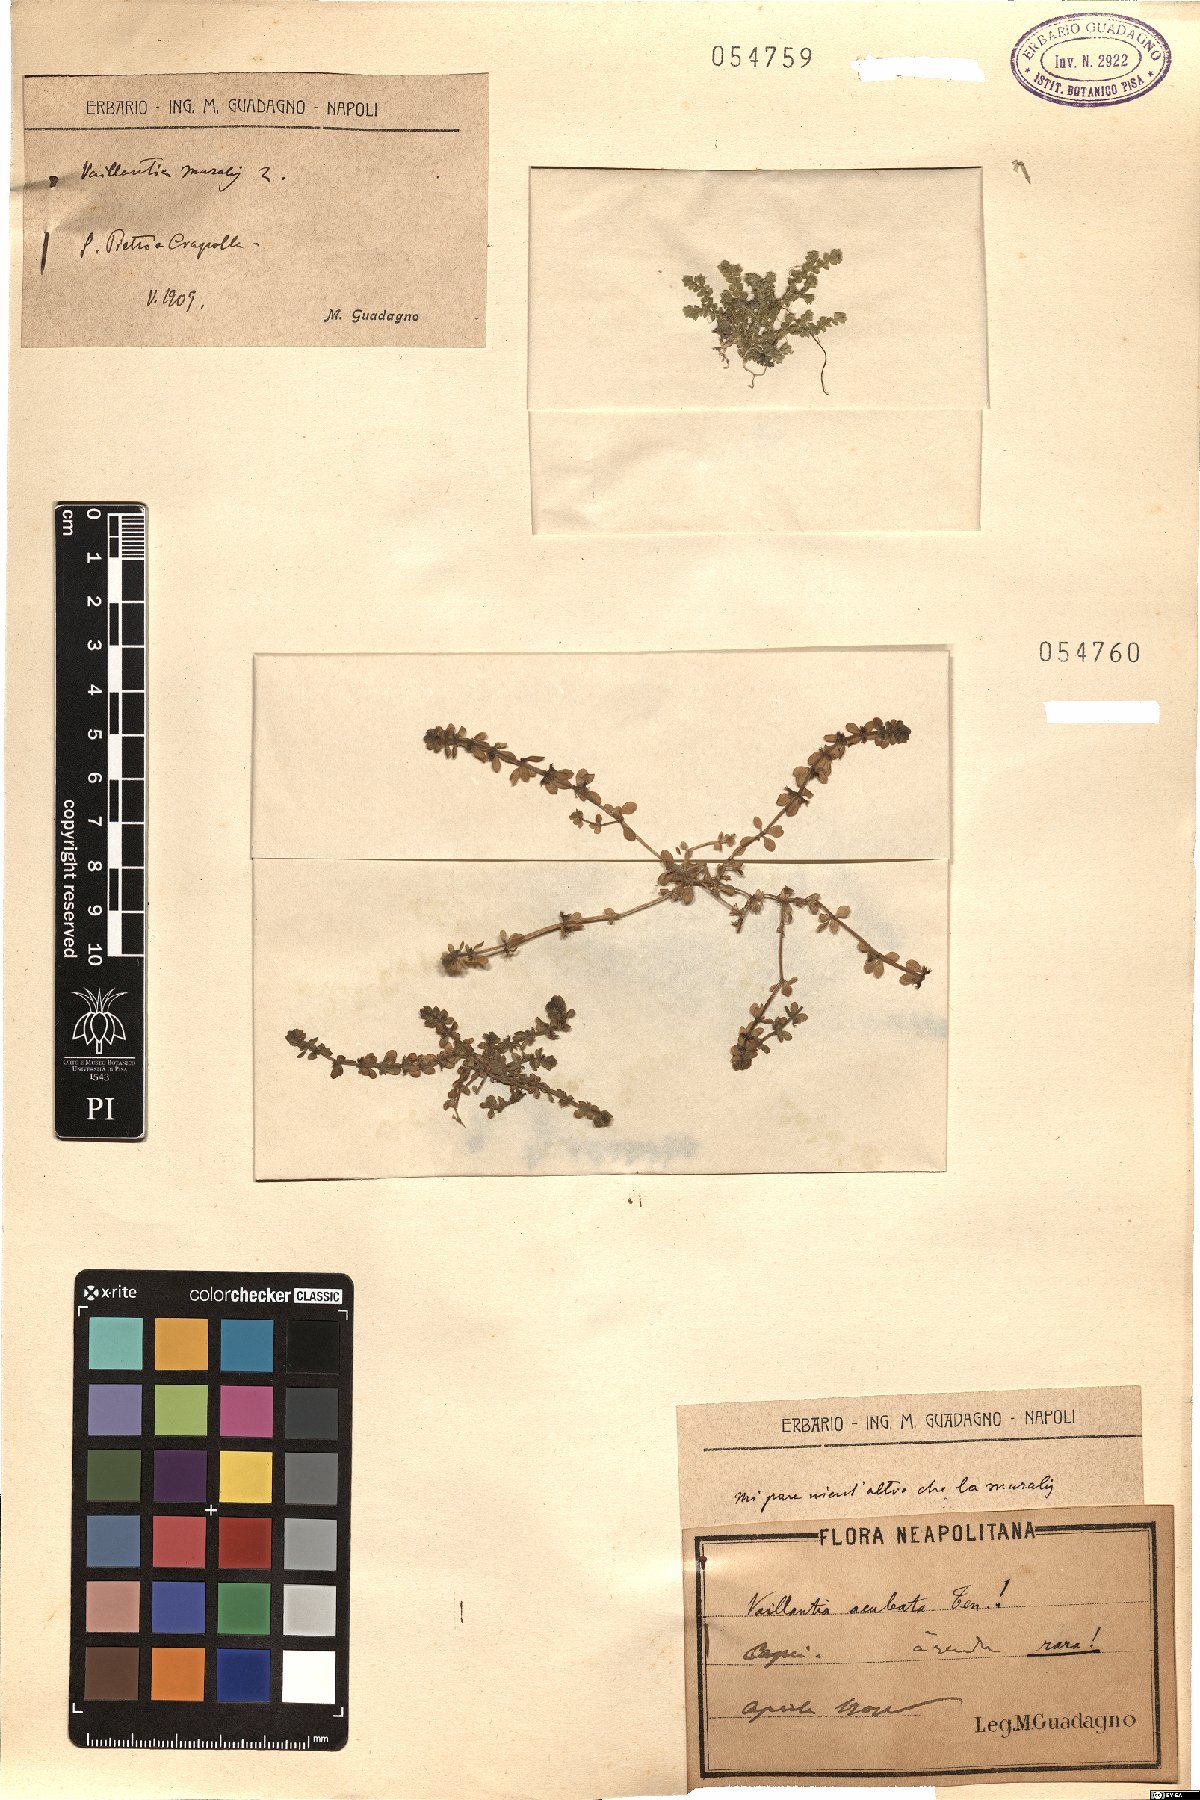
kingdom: Plantae
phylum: Tracheophyta
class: Magnoliopsida
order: Gentianales
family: Rubiaceae
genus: Valantia
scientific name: Valantia muralis
